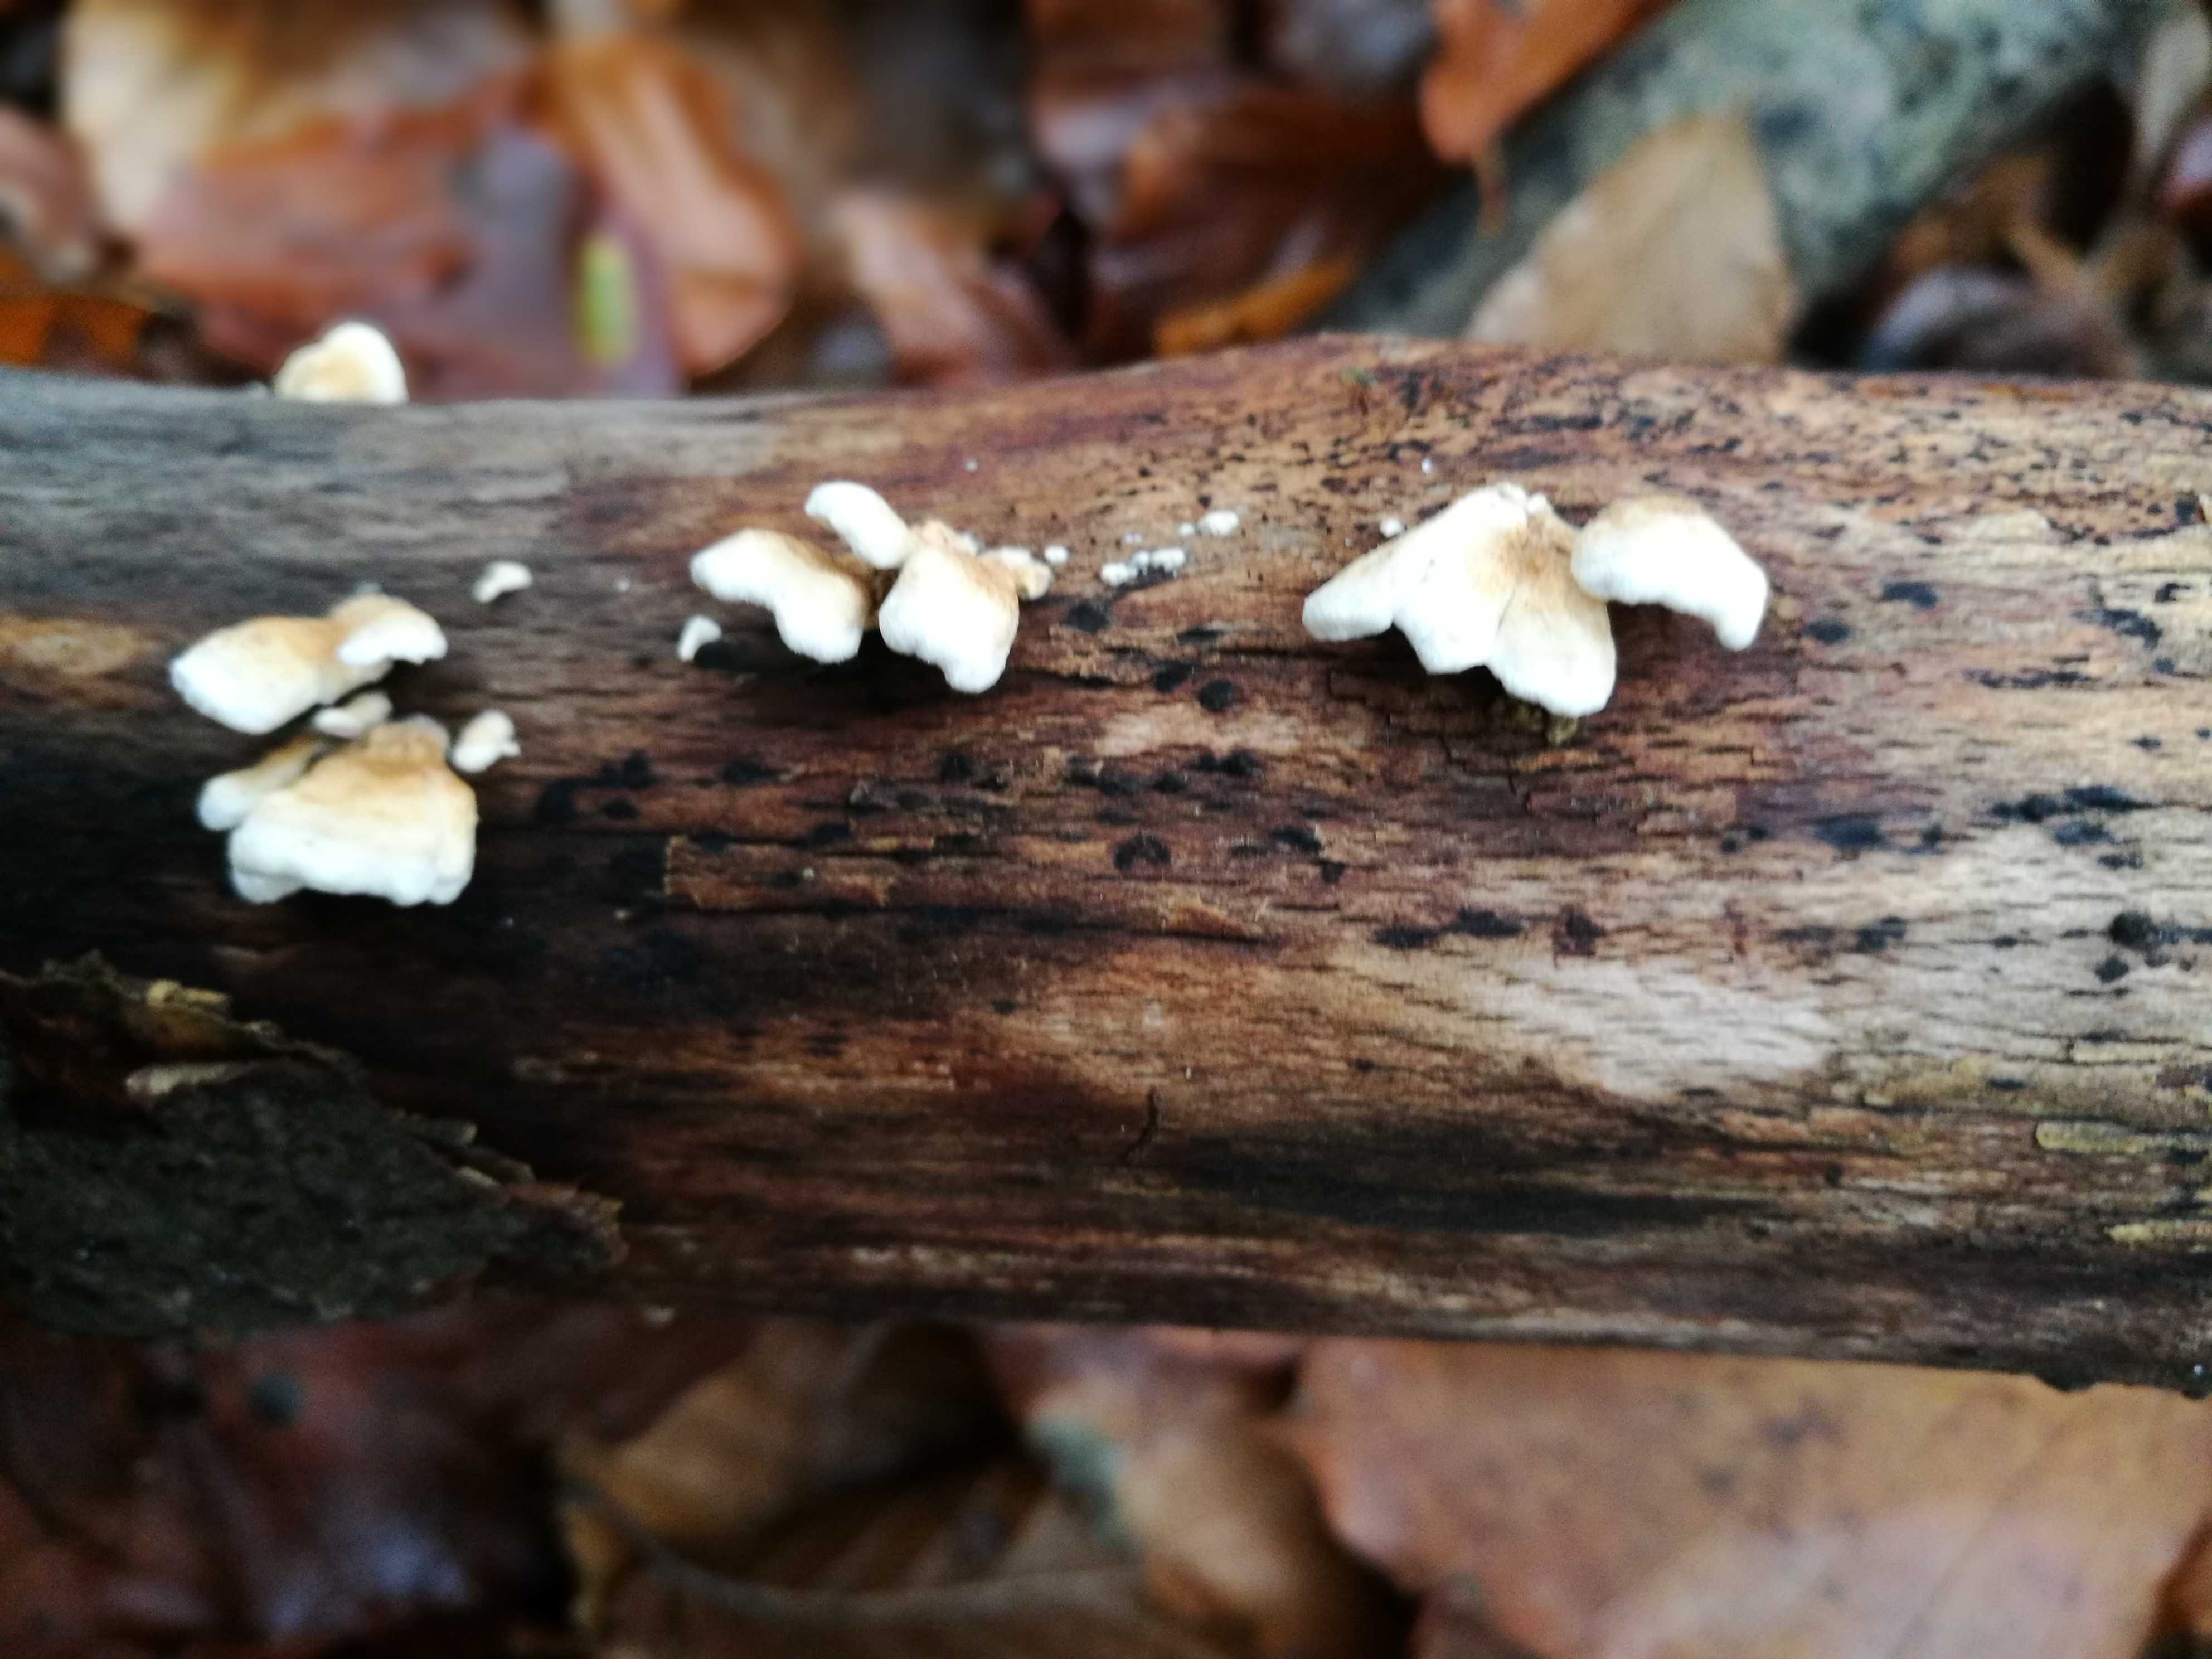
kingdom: Fungi
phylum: Basidiomycota
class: Agaricomycetes
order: Amylocorticiales
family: Amylocorticiaceae
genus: Plicaturopsis
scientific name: Plicaturopsis crispa
